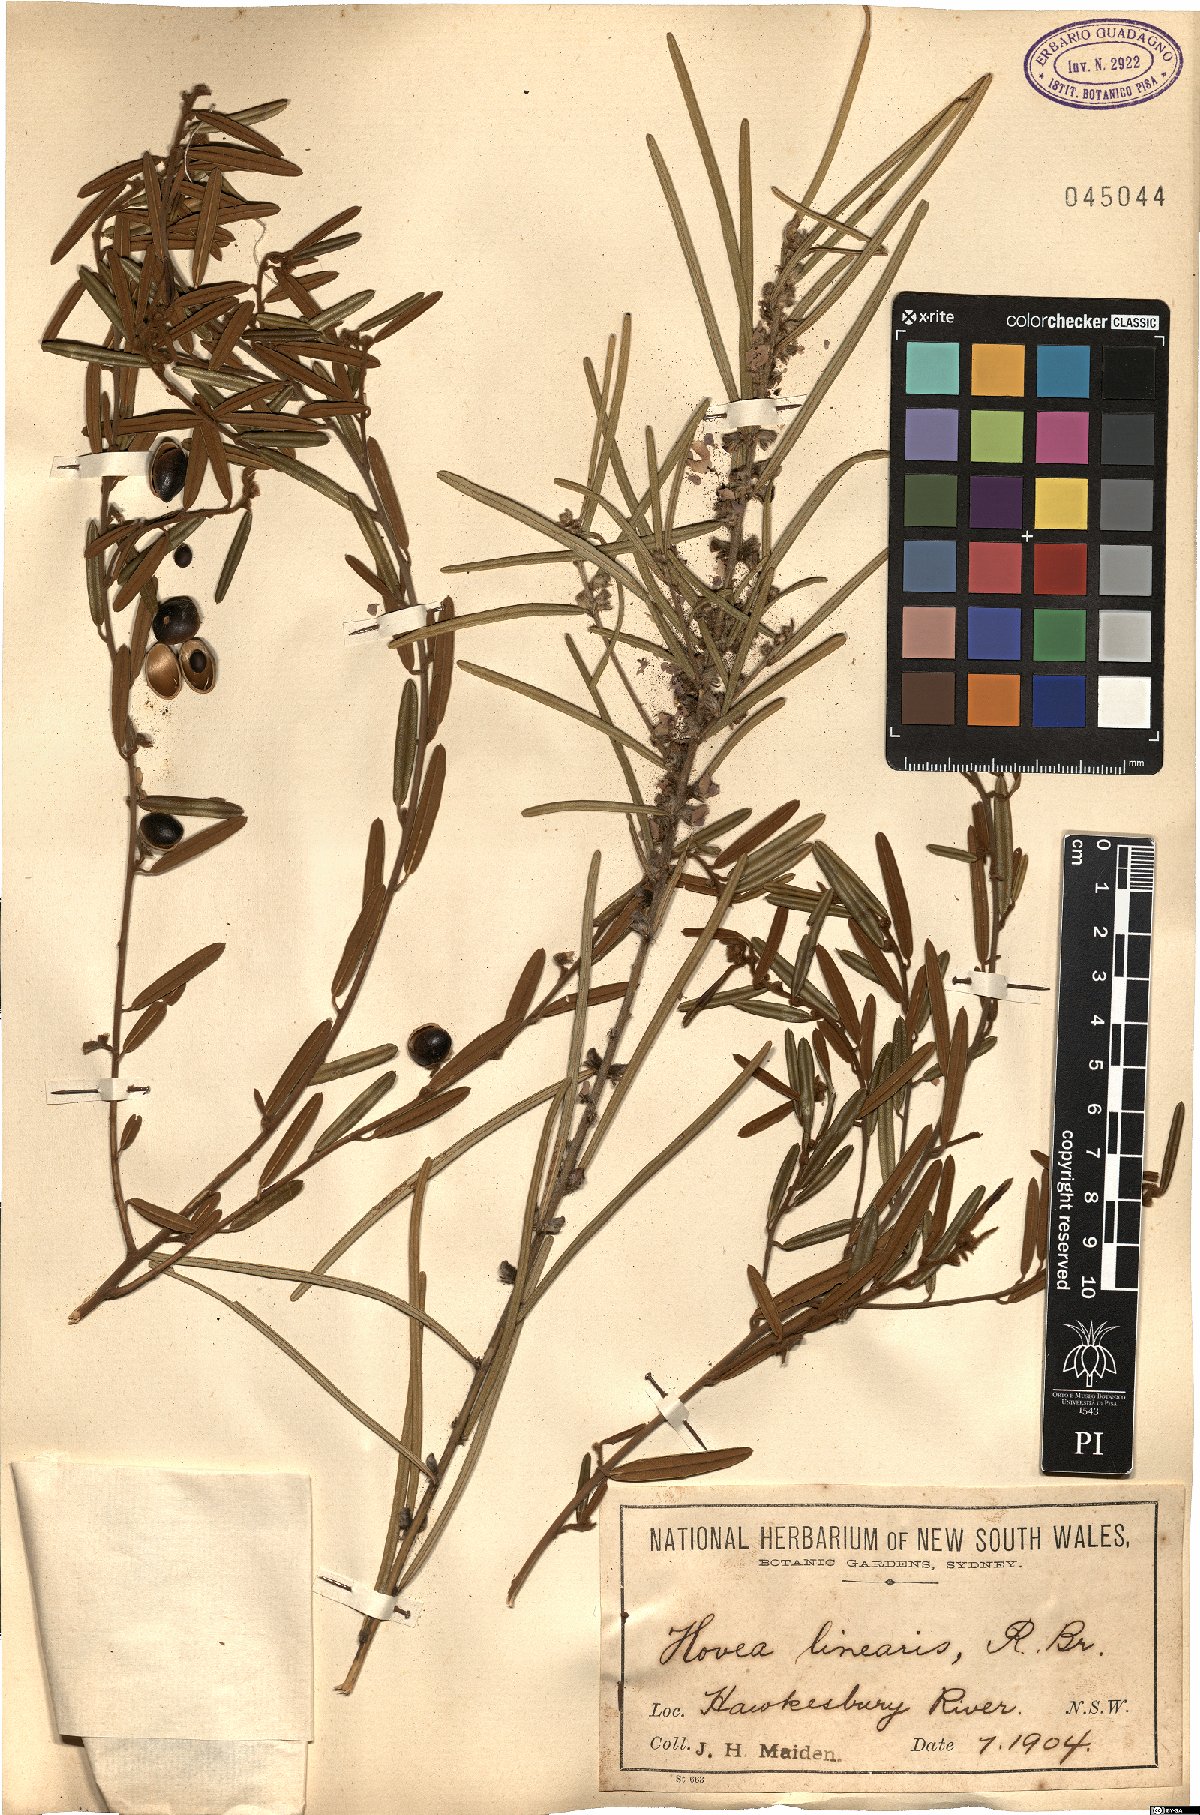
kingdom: Plantae
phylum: Tracheophyta
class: Magnoliopsida
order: Fabales
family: Fabaceae
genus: Hovea
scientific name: Hovea linearis
